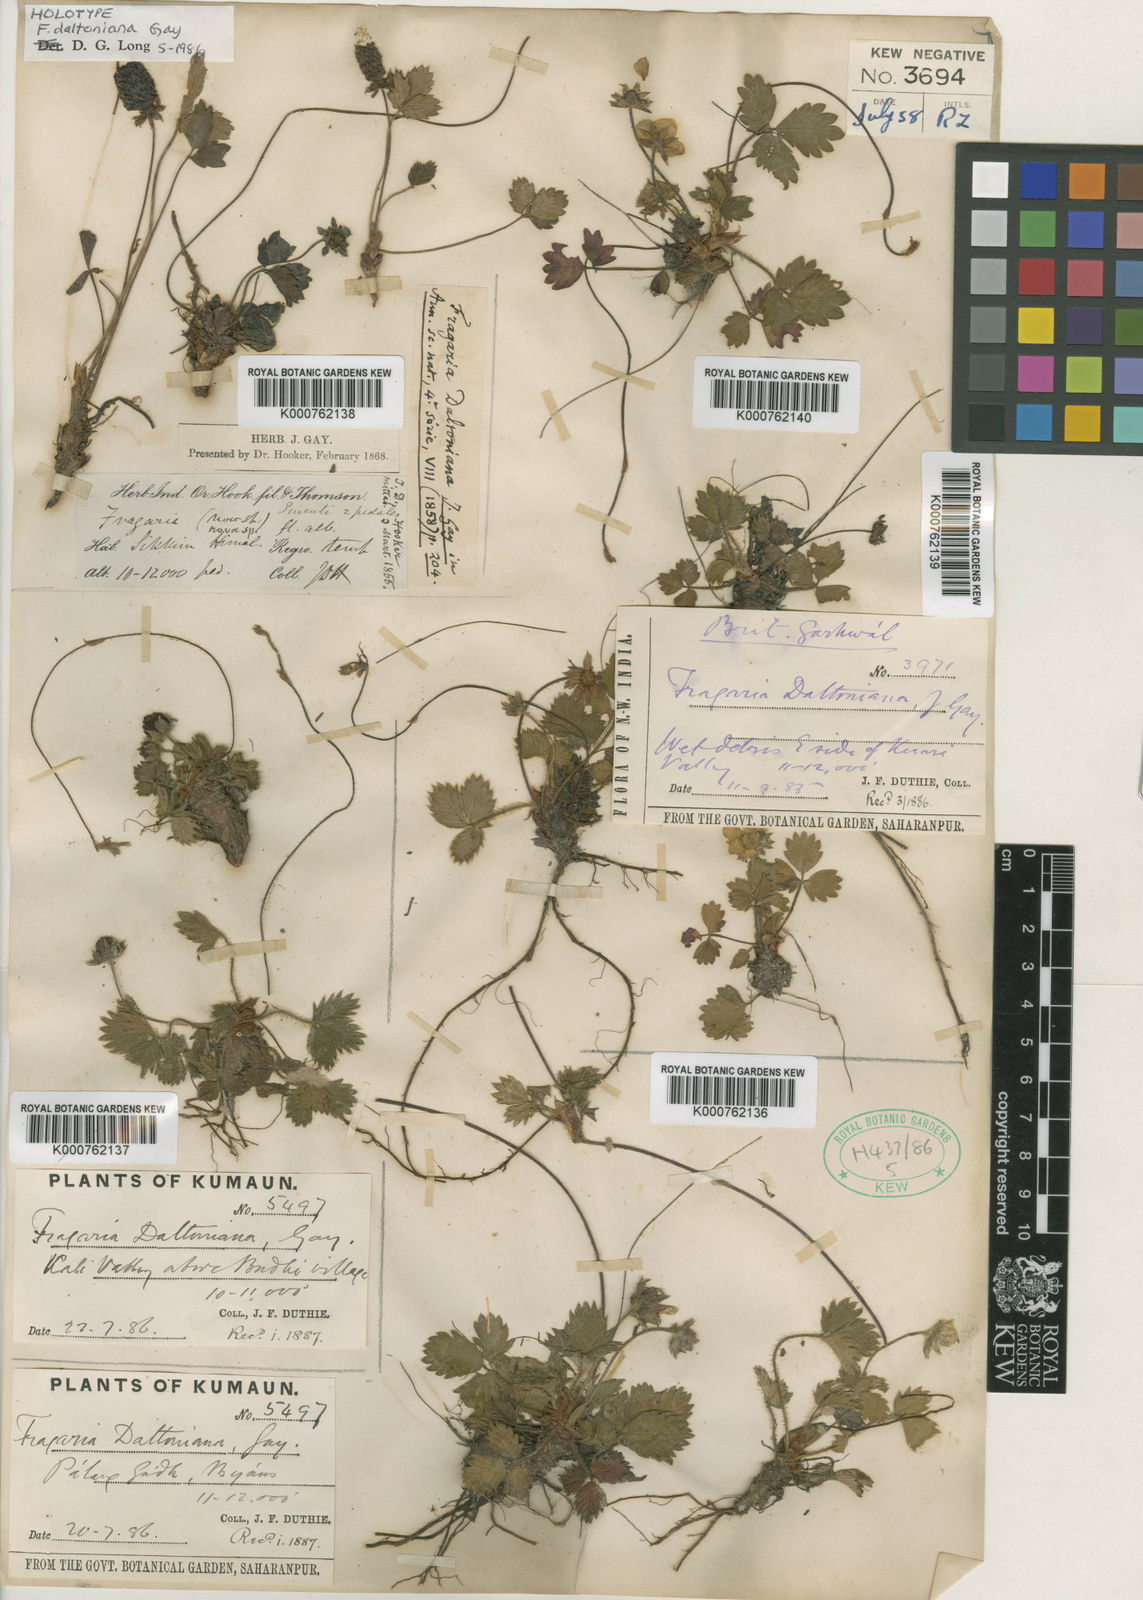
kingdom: Plantae
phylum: Tracheophyta
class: Magnoliopsida
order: Rosales
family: Rosaceae
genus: Fragaria
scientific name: Fragaria daltoniana
